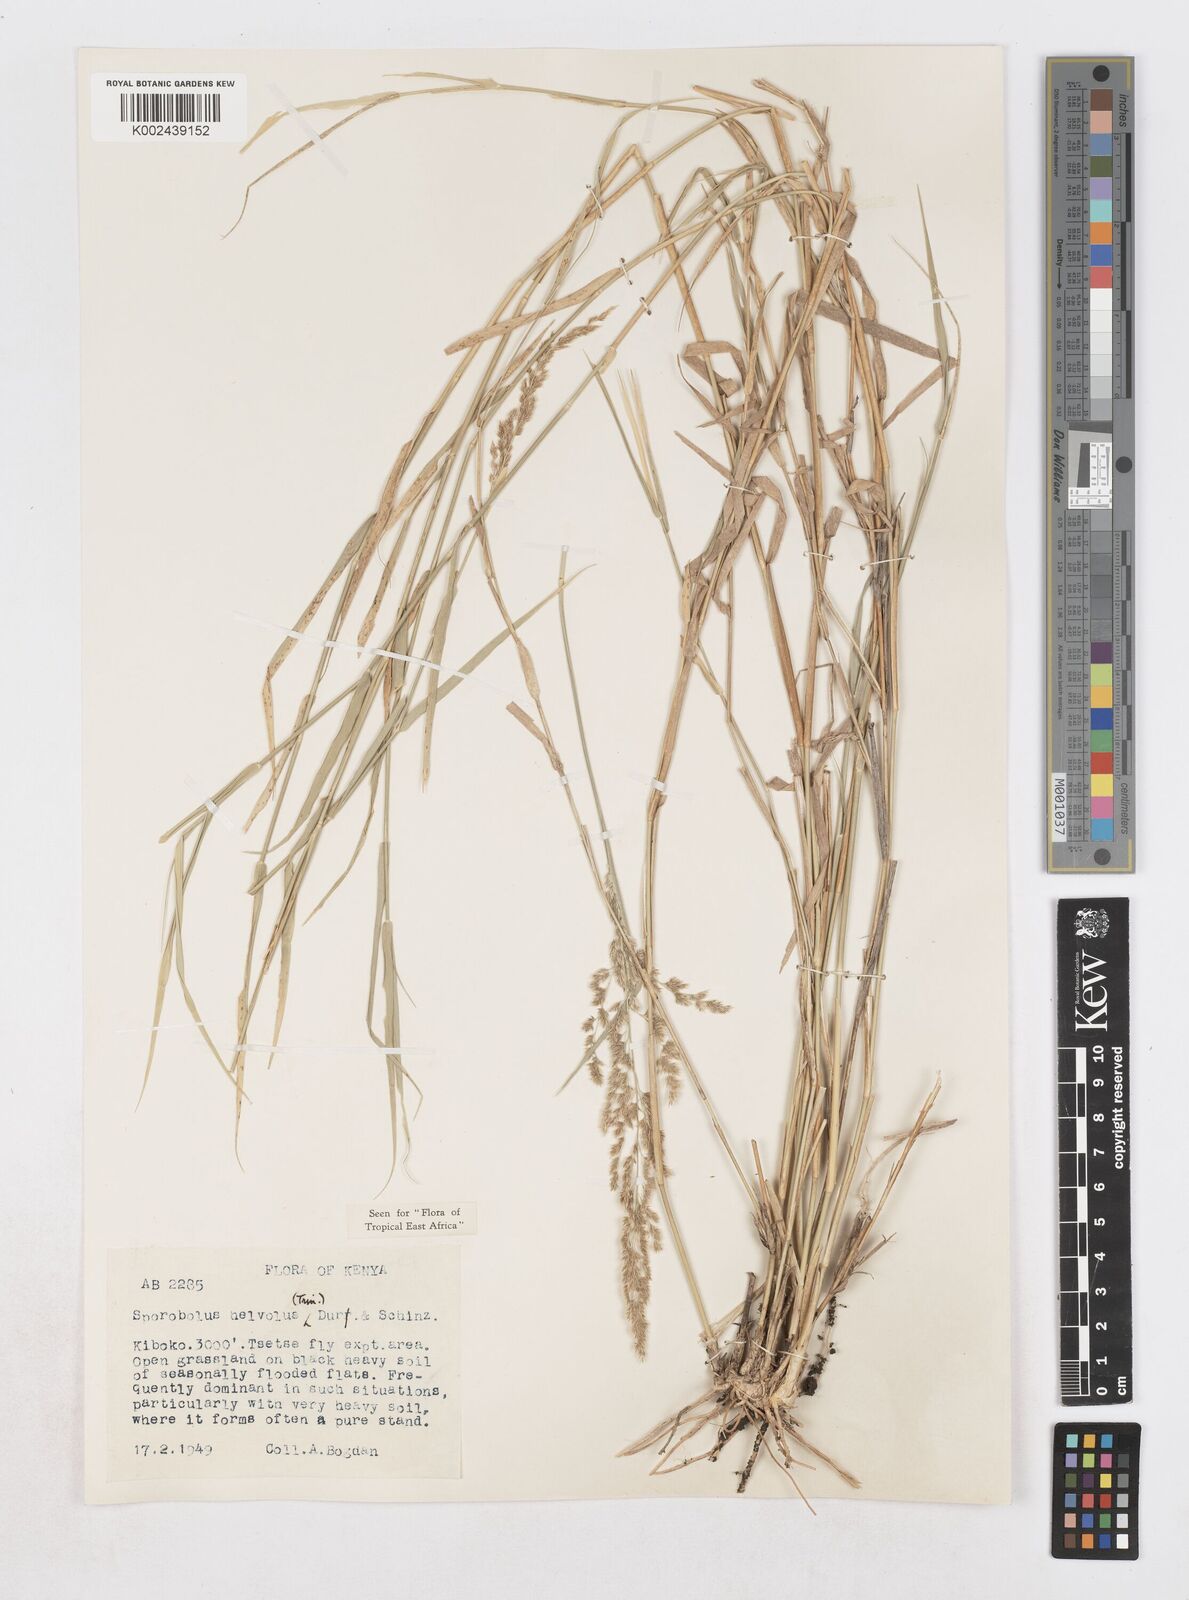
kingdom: Plantae
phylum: Tracheophyta
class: Liliopsida
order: Poales
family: Poaceae
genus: Sporobolus
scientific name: Sporobolus helvolus
